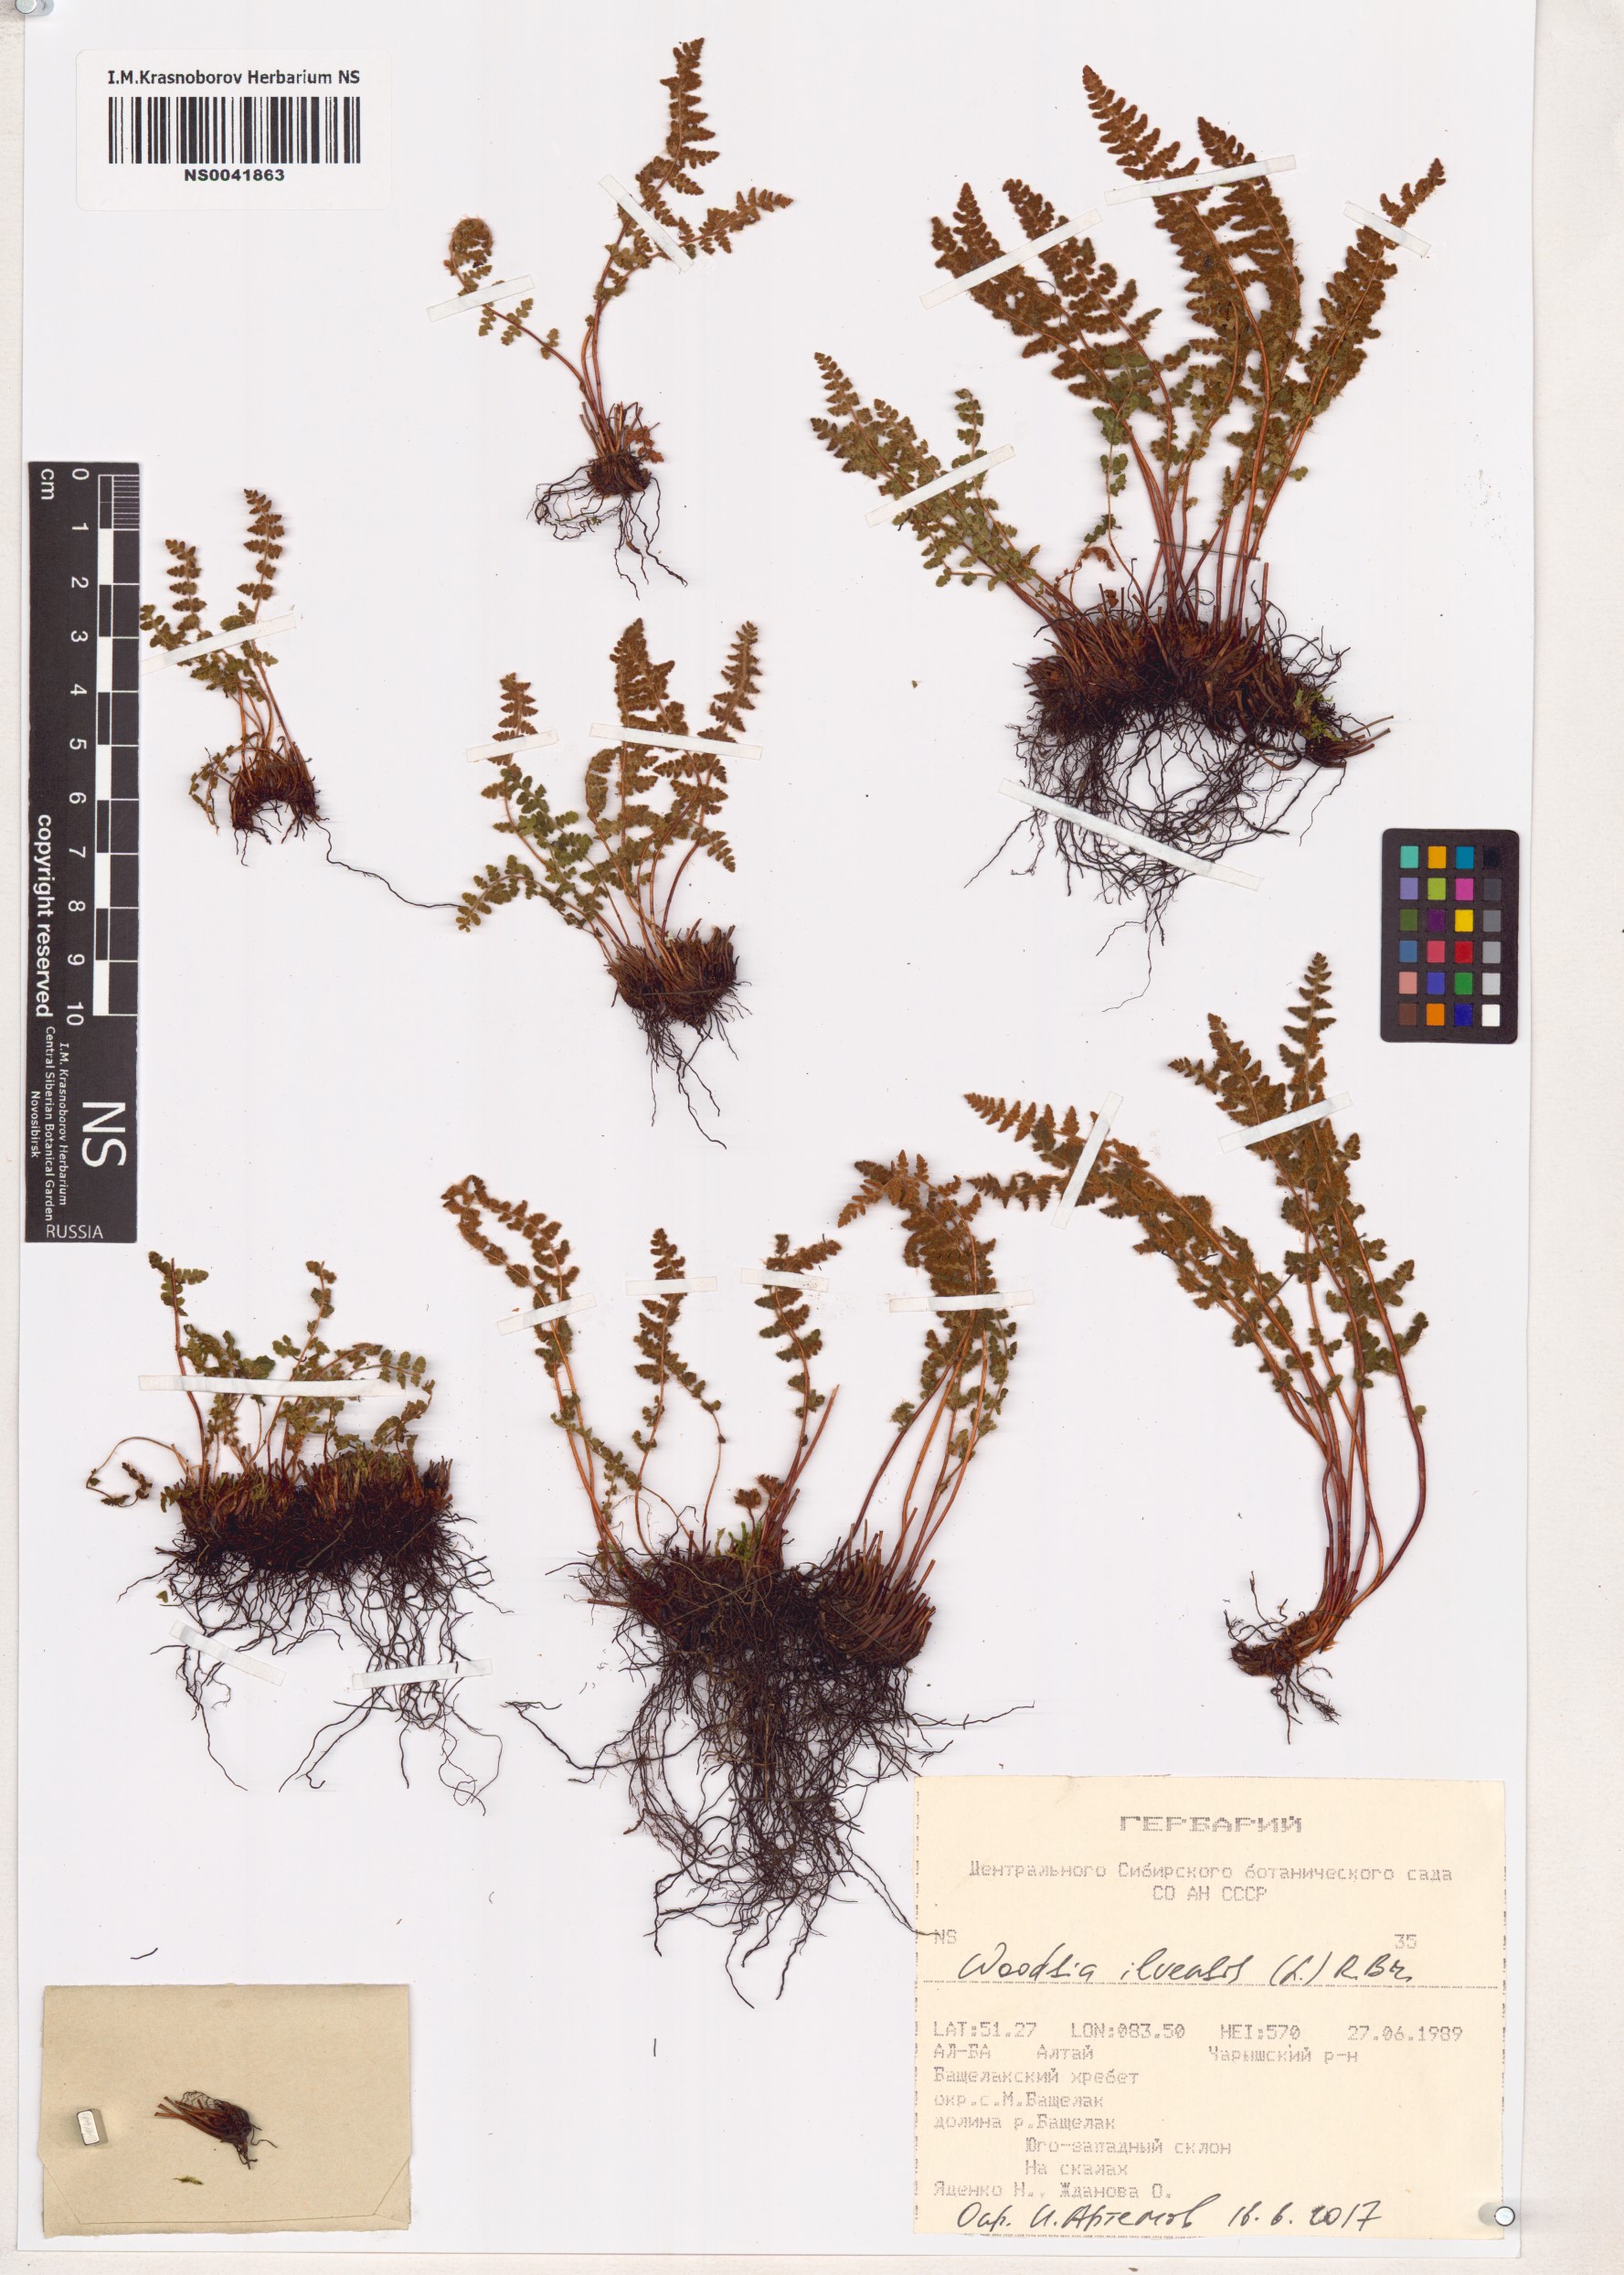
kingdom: Plantae
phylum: Tracheophyta
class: Polypodiopsida
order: Polypodiales
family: Woodsiaceae
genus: Woodsia
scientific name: Woodsia ilvensis
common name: Fragrant woodsia
